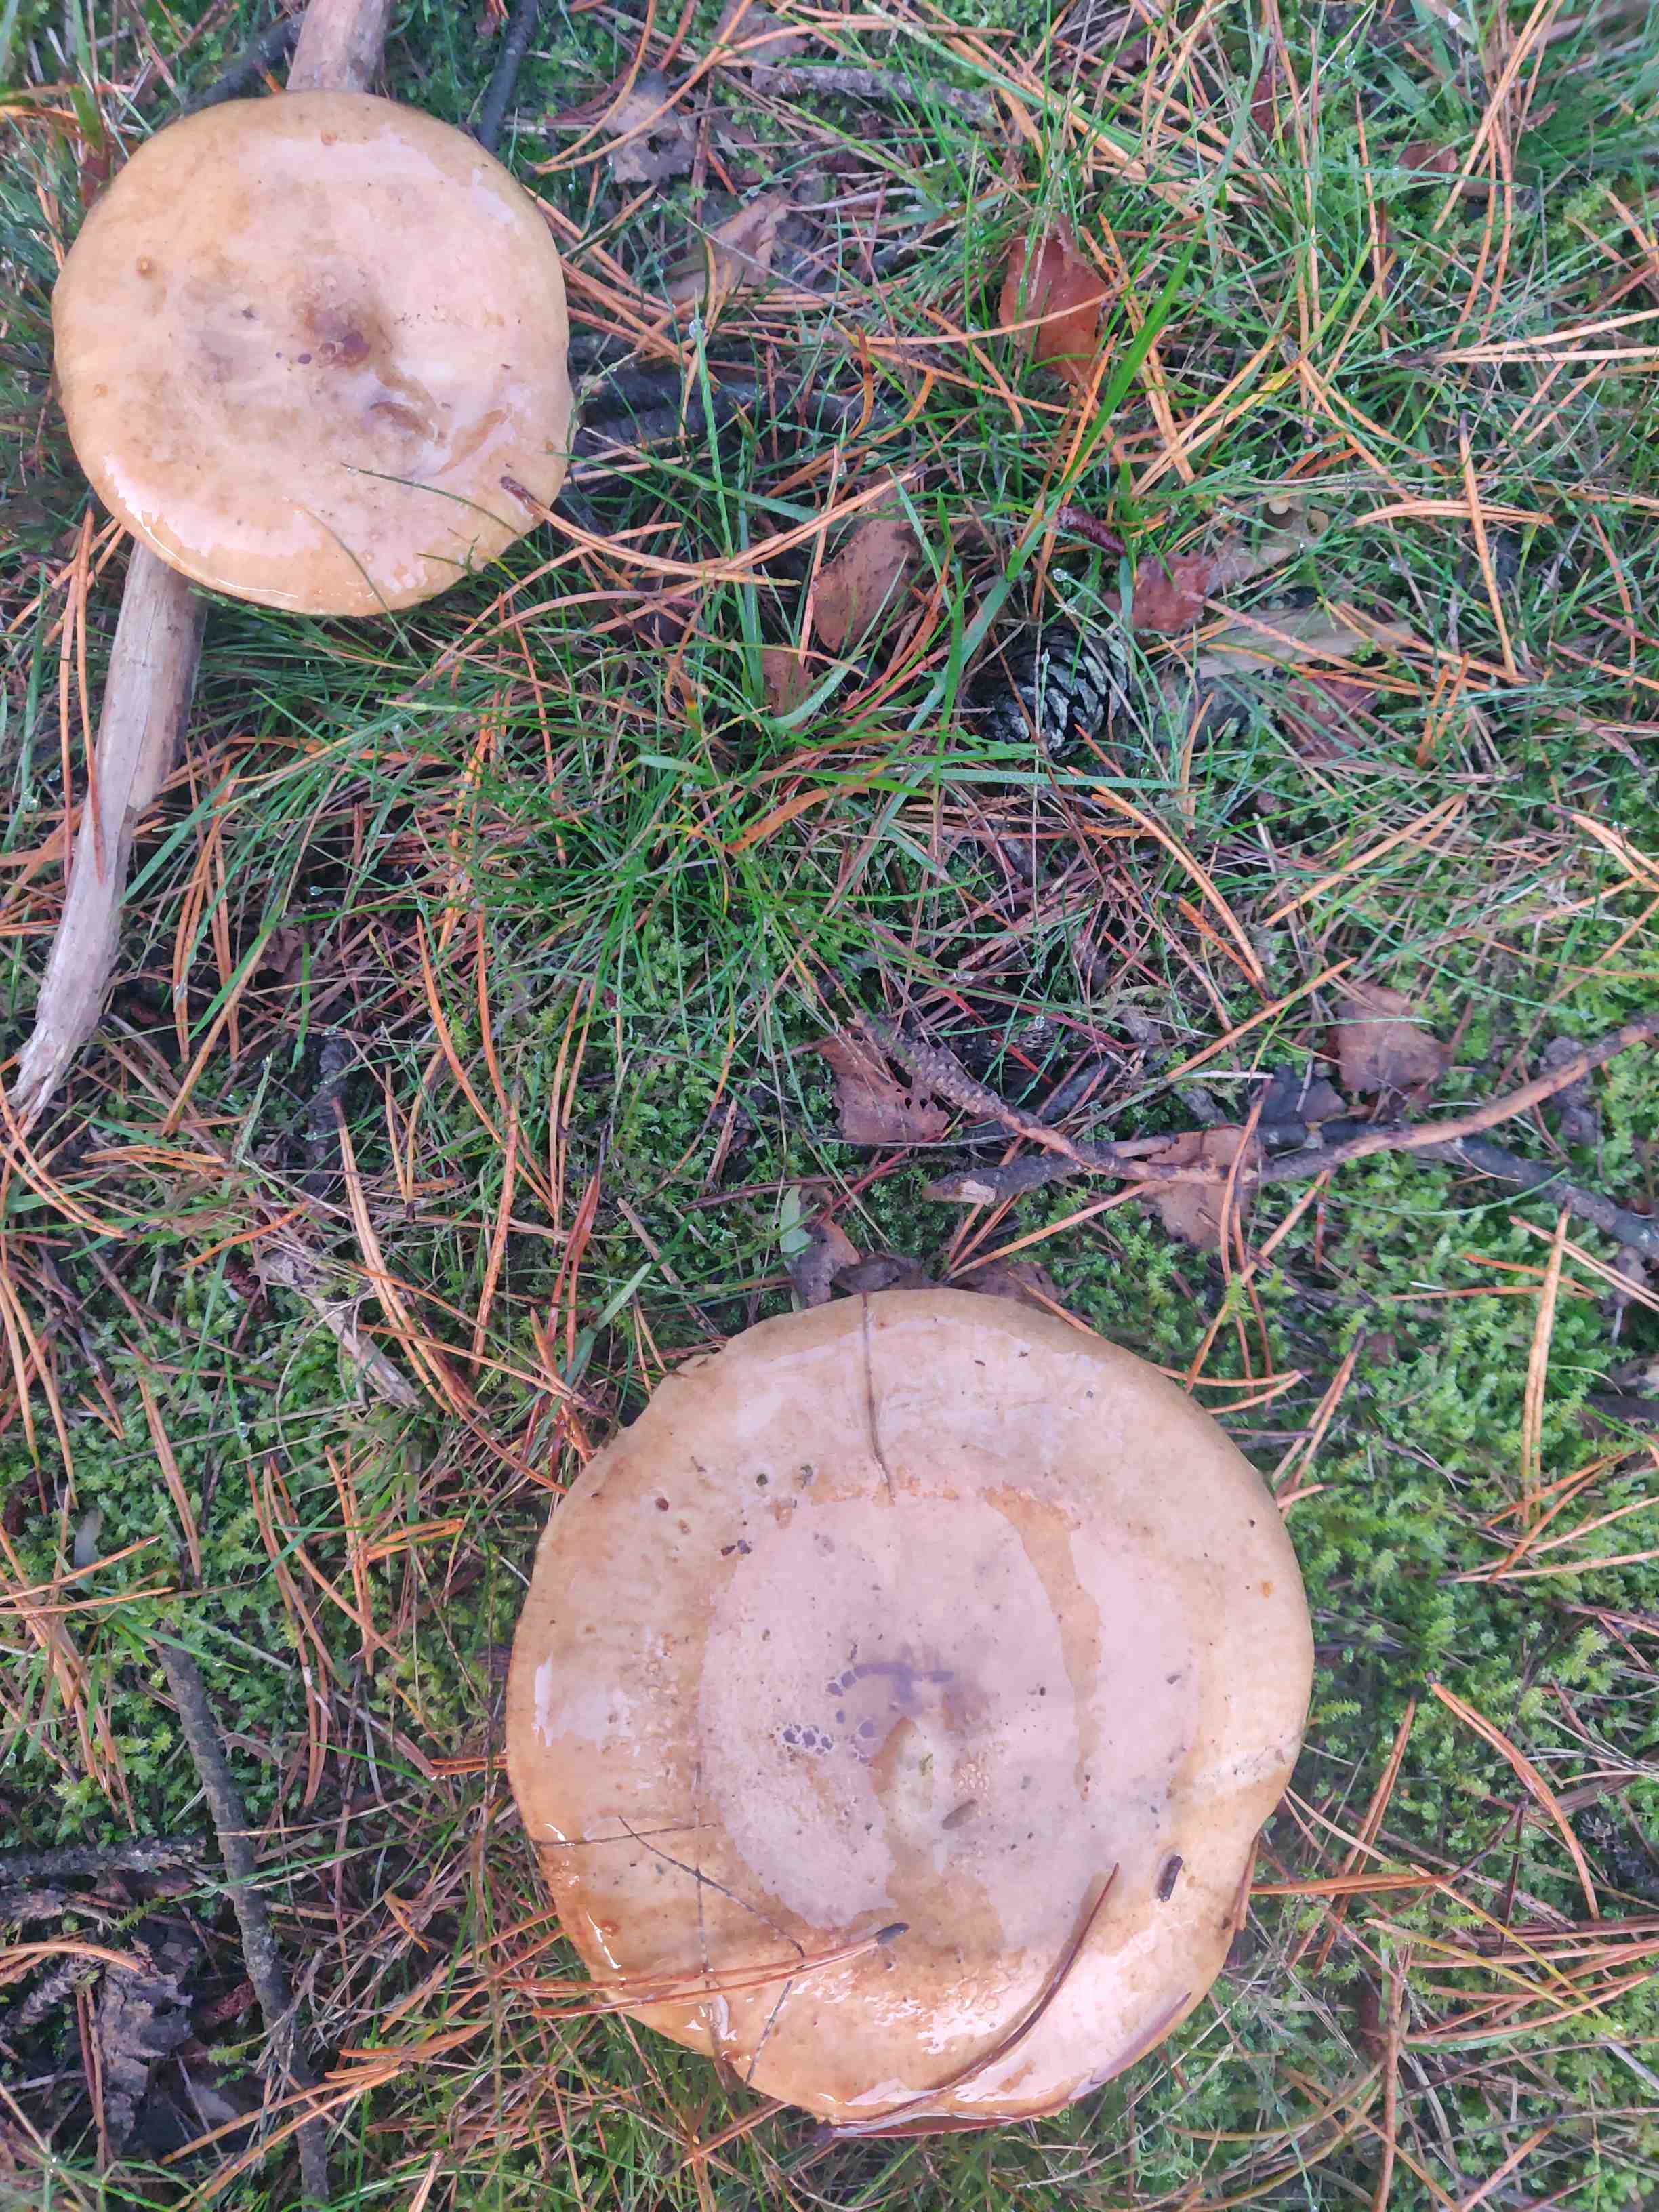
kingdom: Fungi
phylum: Basidiomycota
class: Agaricomycetes
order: Boletales
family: Paxillaceae
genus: Paxillus
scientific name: Paxillus involutus
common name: almindelig netbladhat
